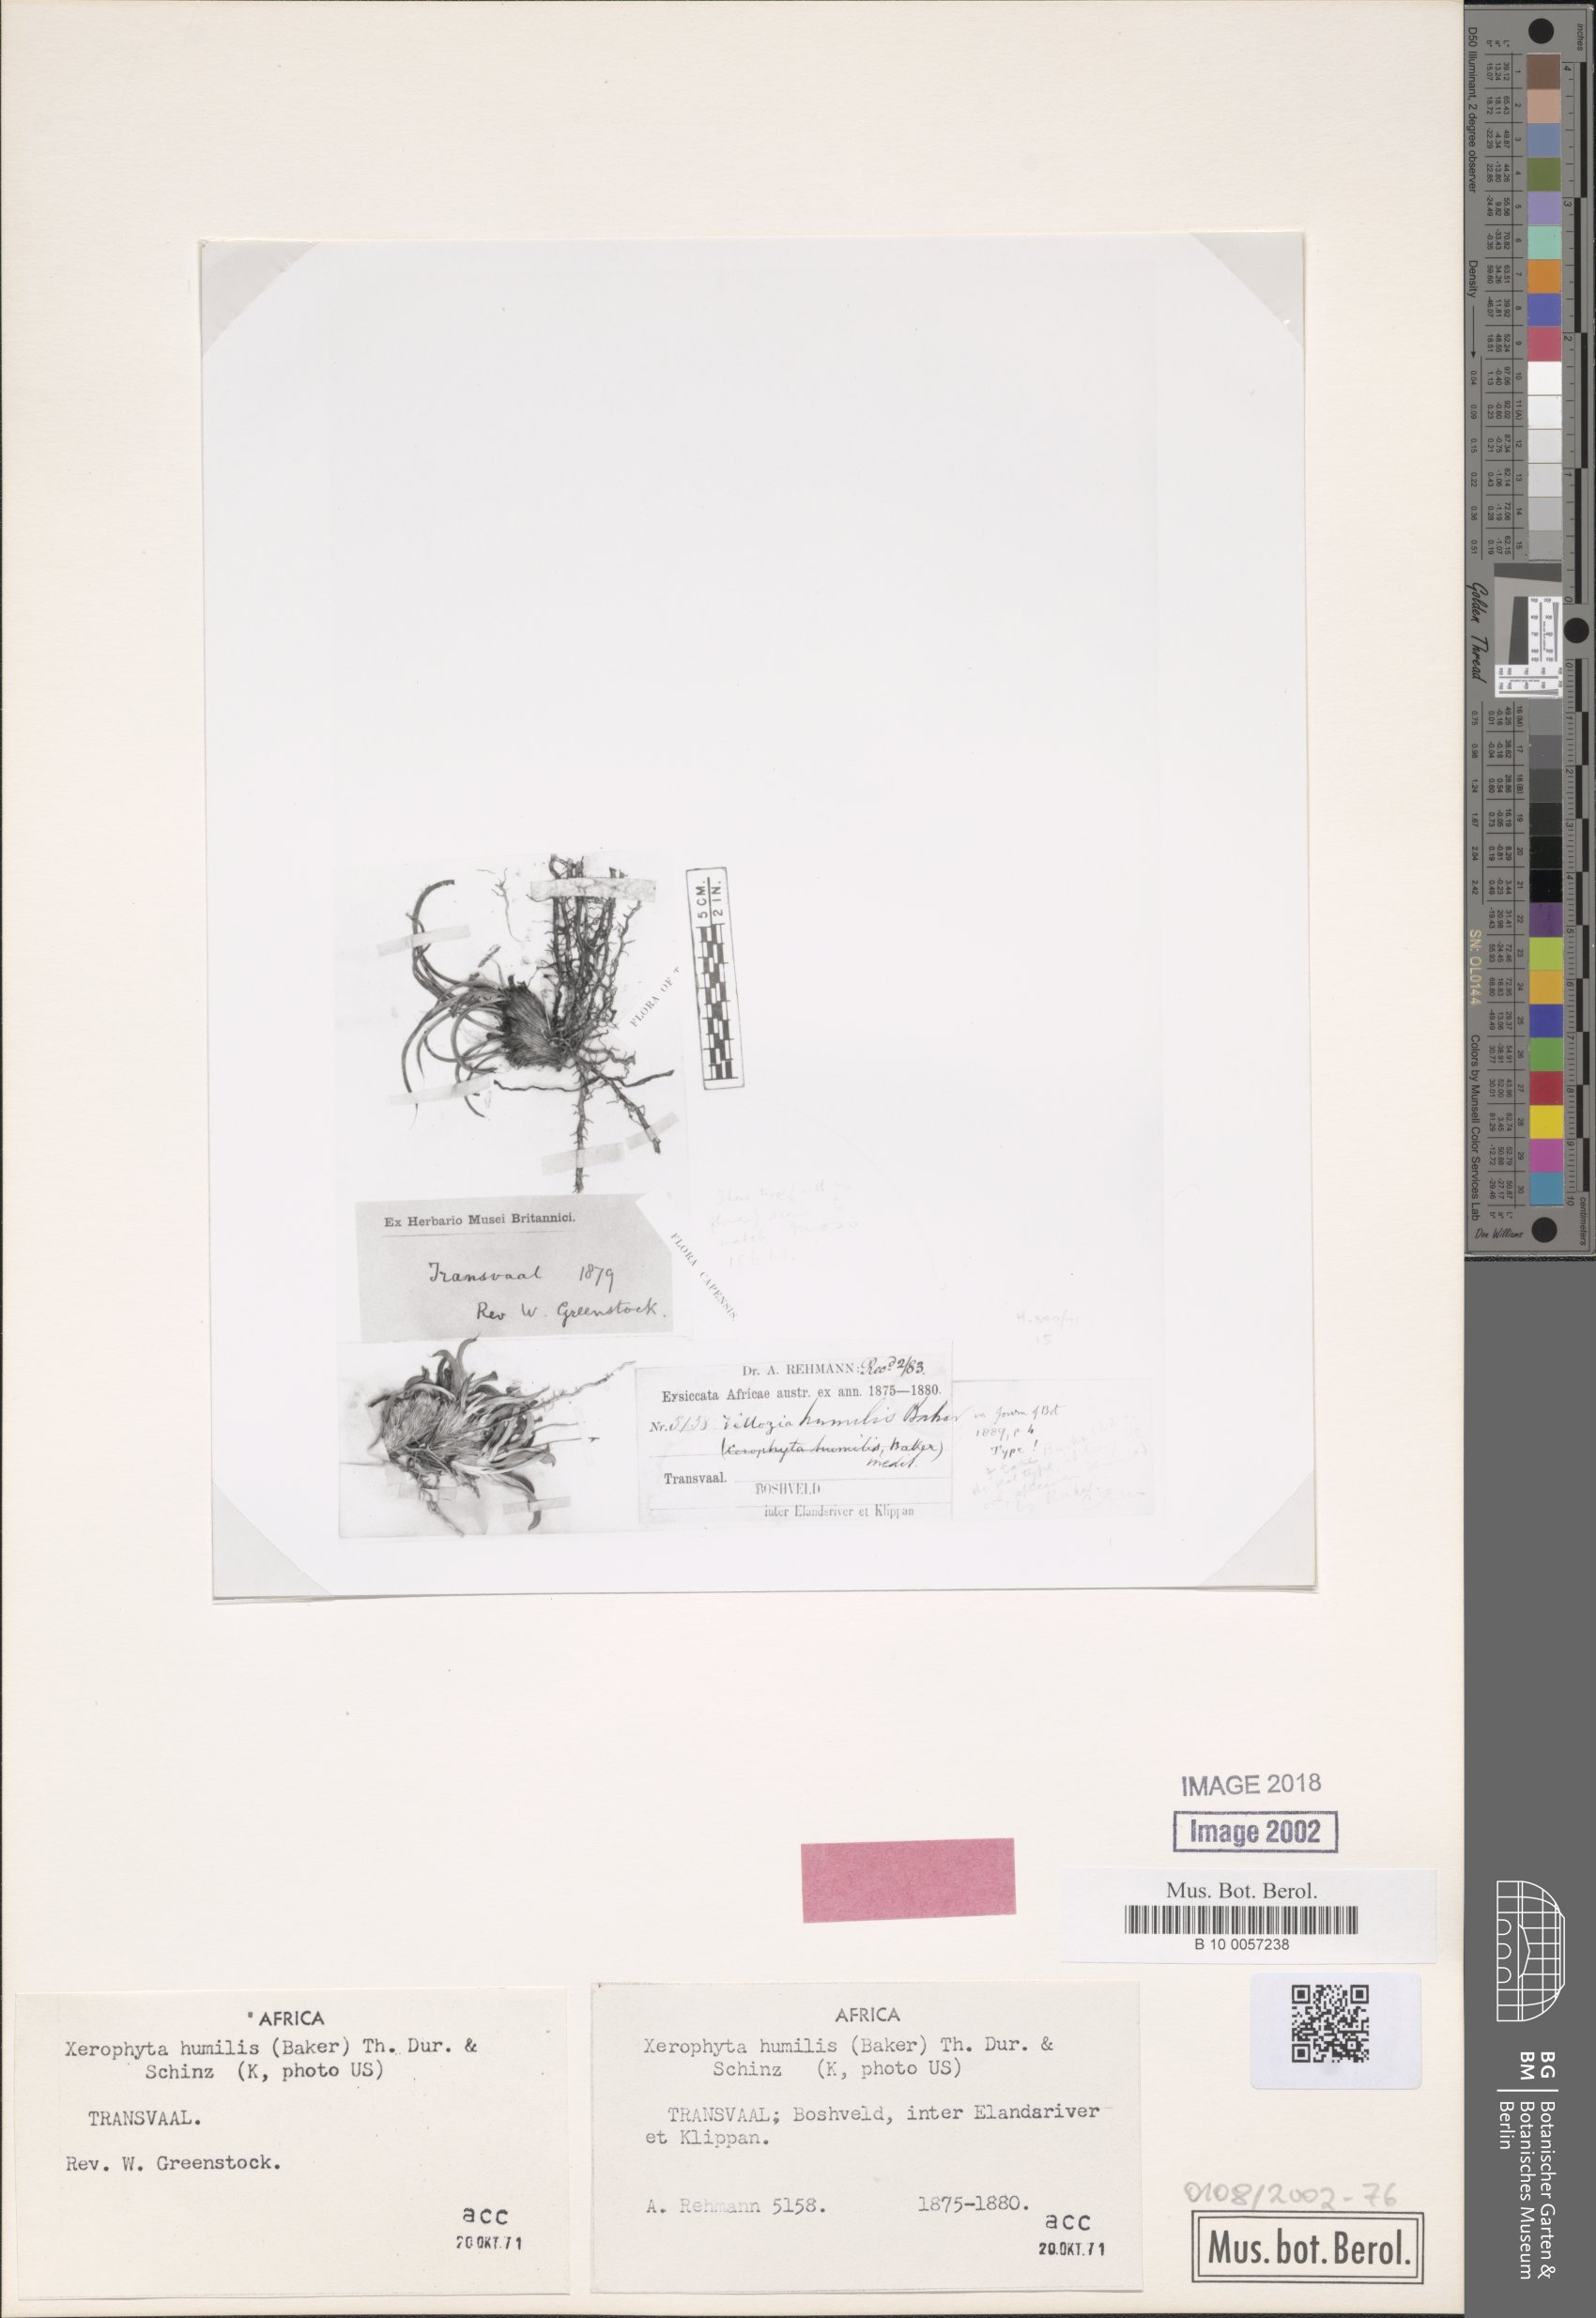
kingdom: Plantae
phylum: Tracheophyta
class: Liliopsida
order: Pandanales
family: Velloziaceae
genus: Xerophyta
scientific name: Xerophyta humilis
